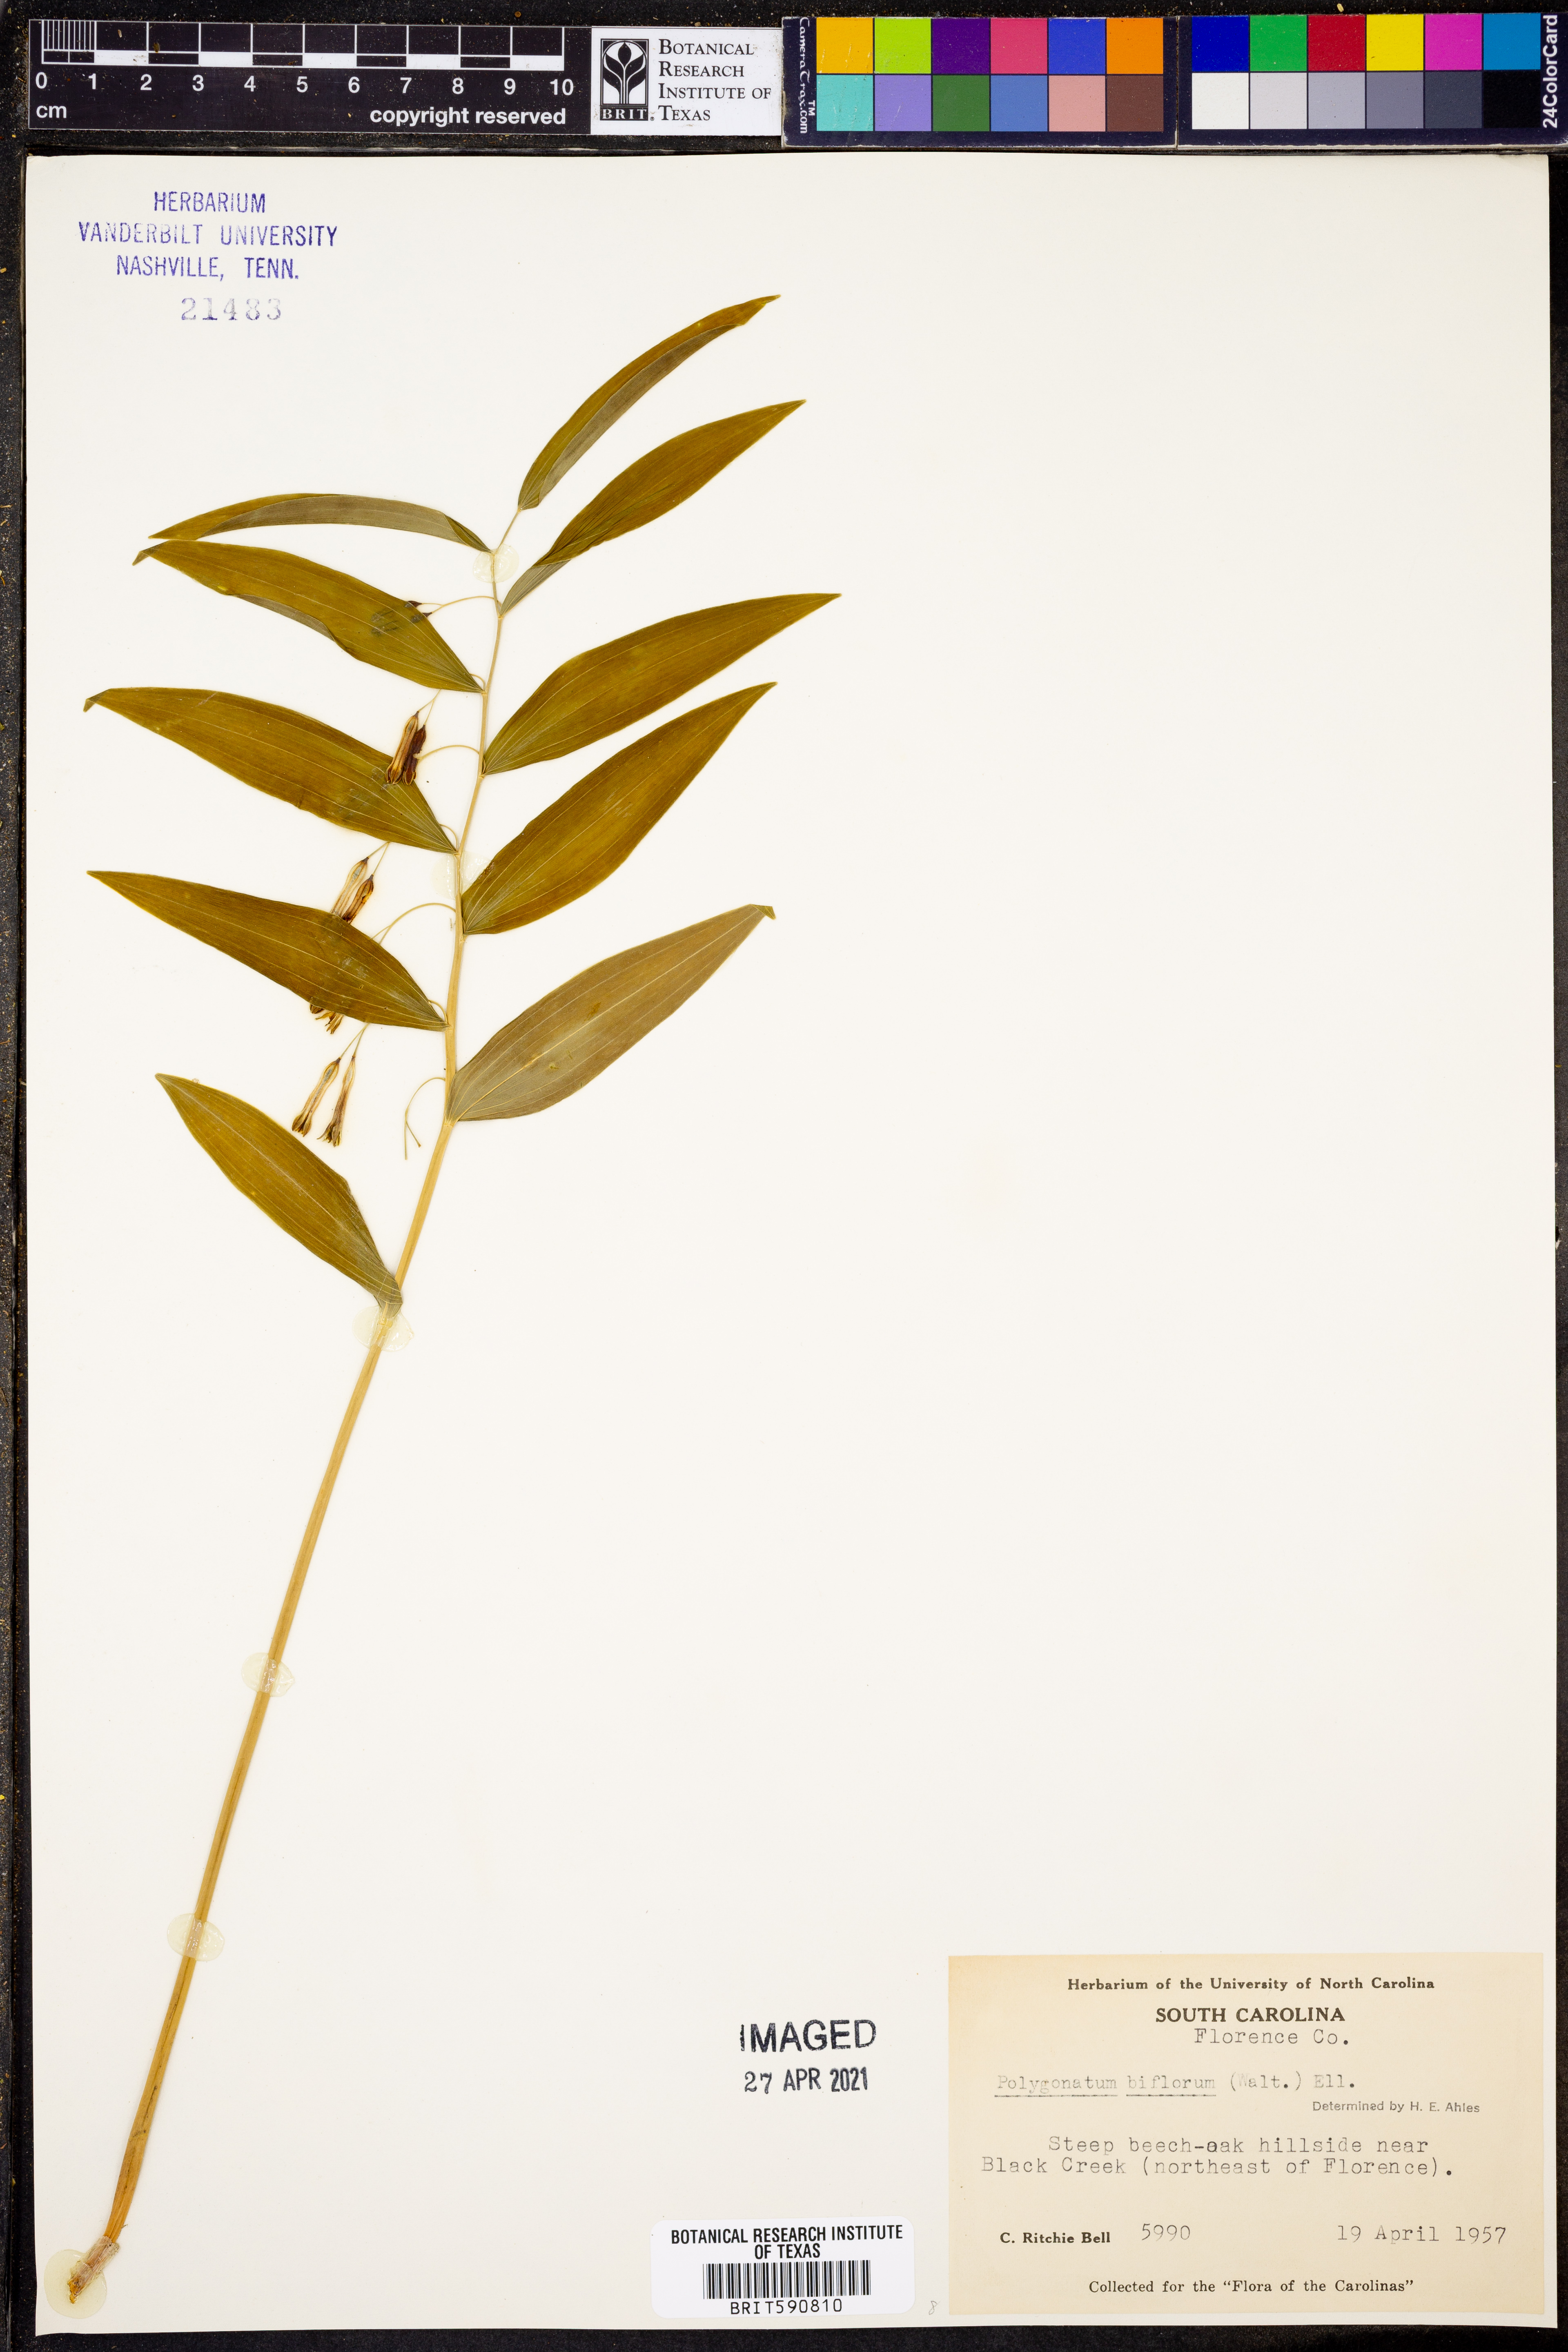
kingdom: Plantae
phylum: Tracheophyta
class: Liliopsida
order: Asparagales
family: Asparagaceae
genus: Polygonatum
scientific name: Polygonatum biflorum
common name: American solomon's-seal
